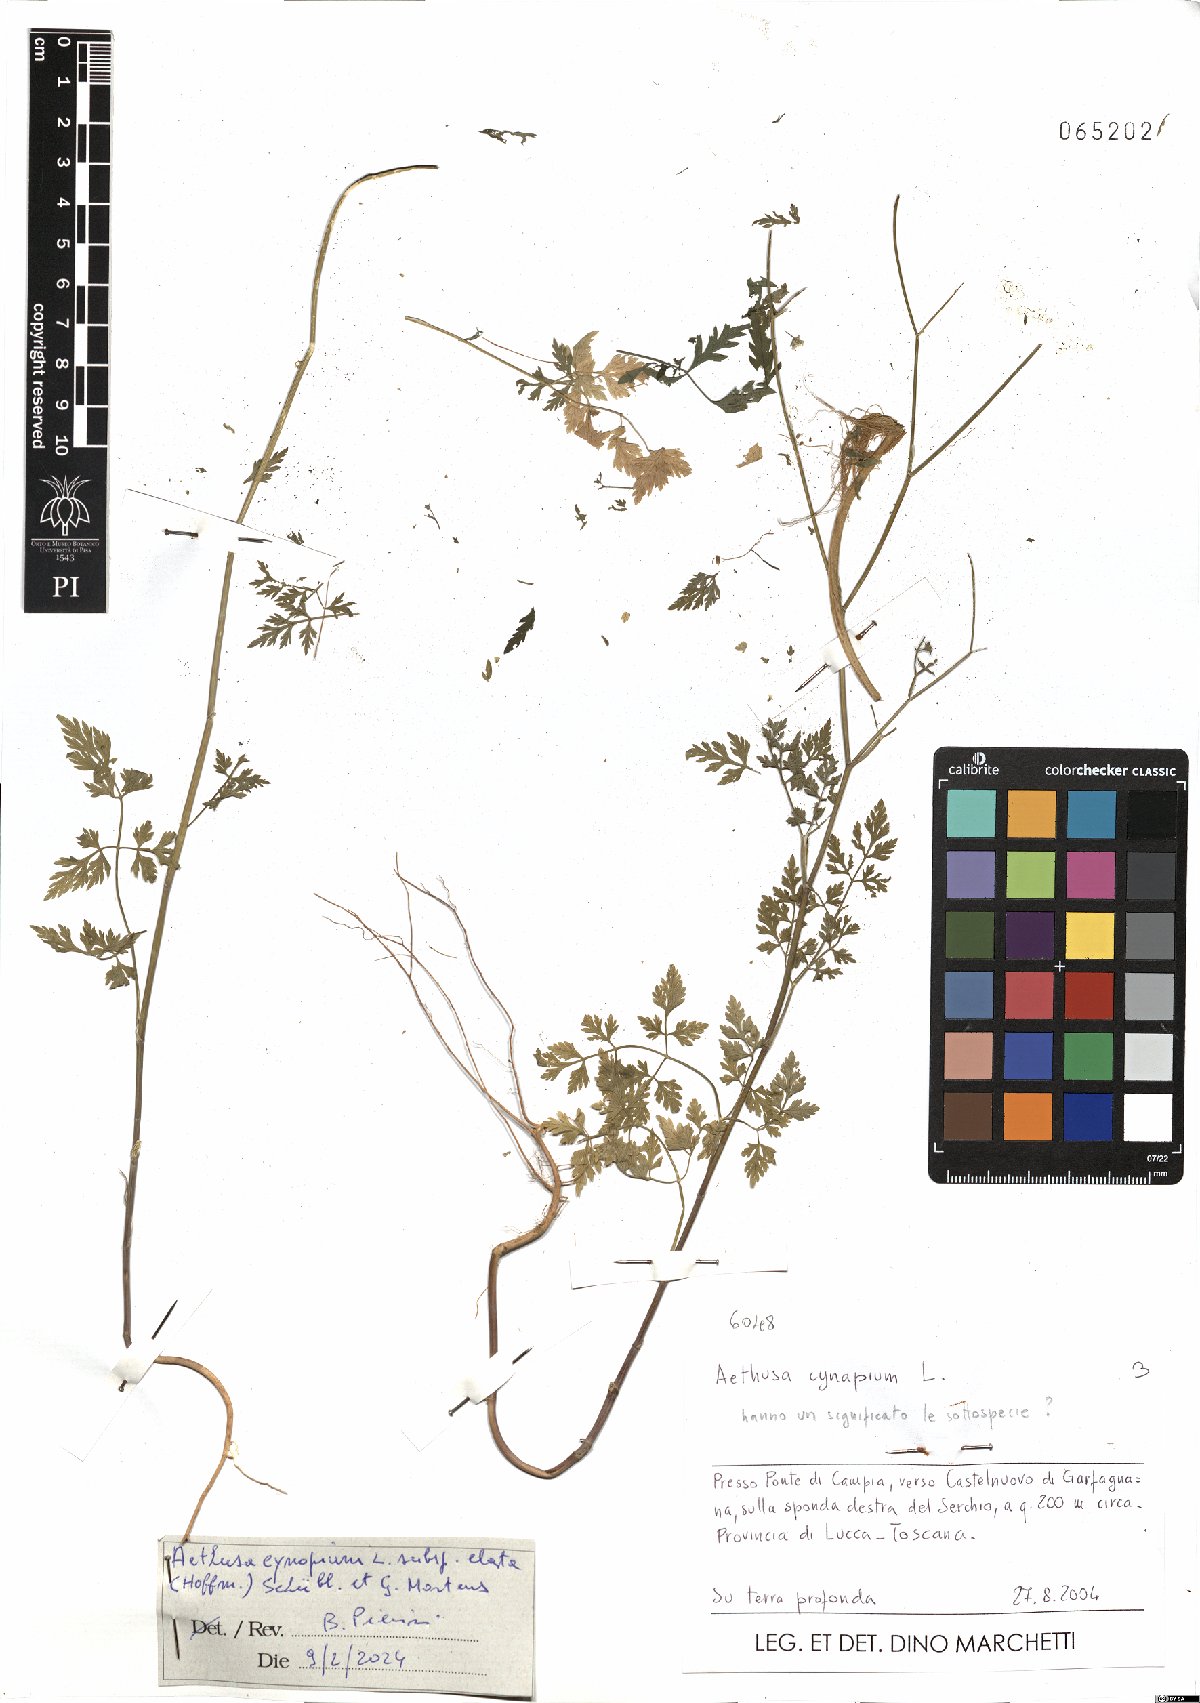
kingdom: Plantae
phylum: Tracheophyta
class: Magnoliopsida
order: Apiales
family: Apiaceae
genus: Aethusa
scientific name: Aethusa cynapium
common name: Fool's parsley
